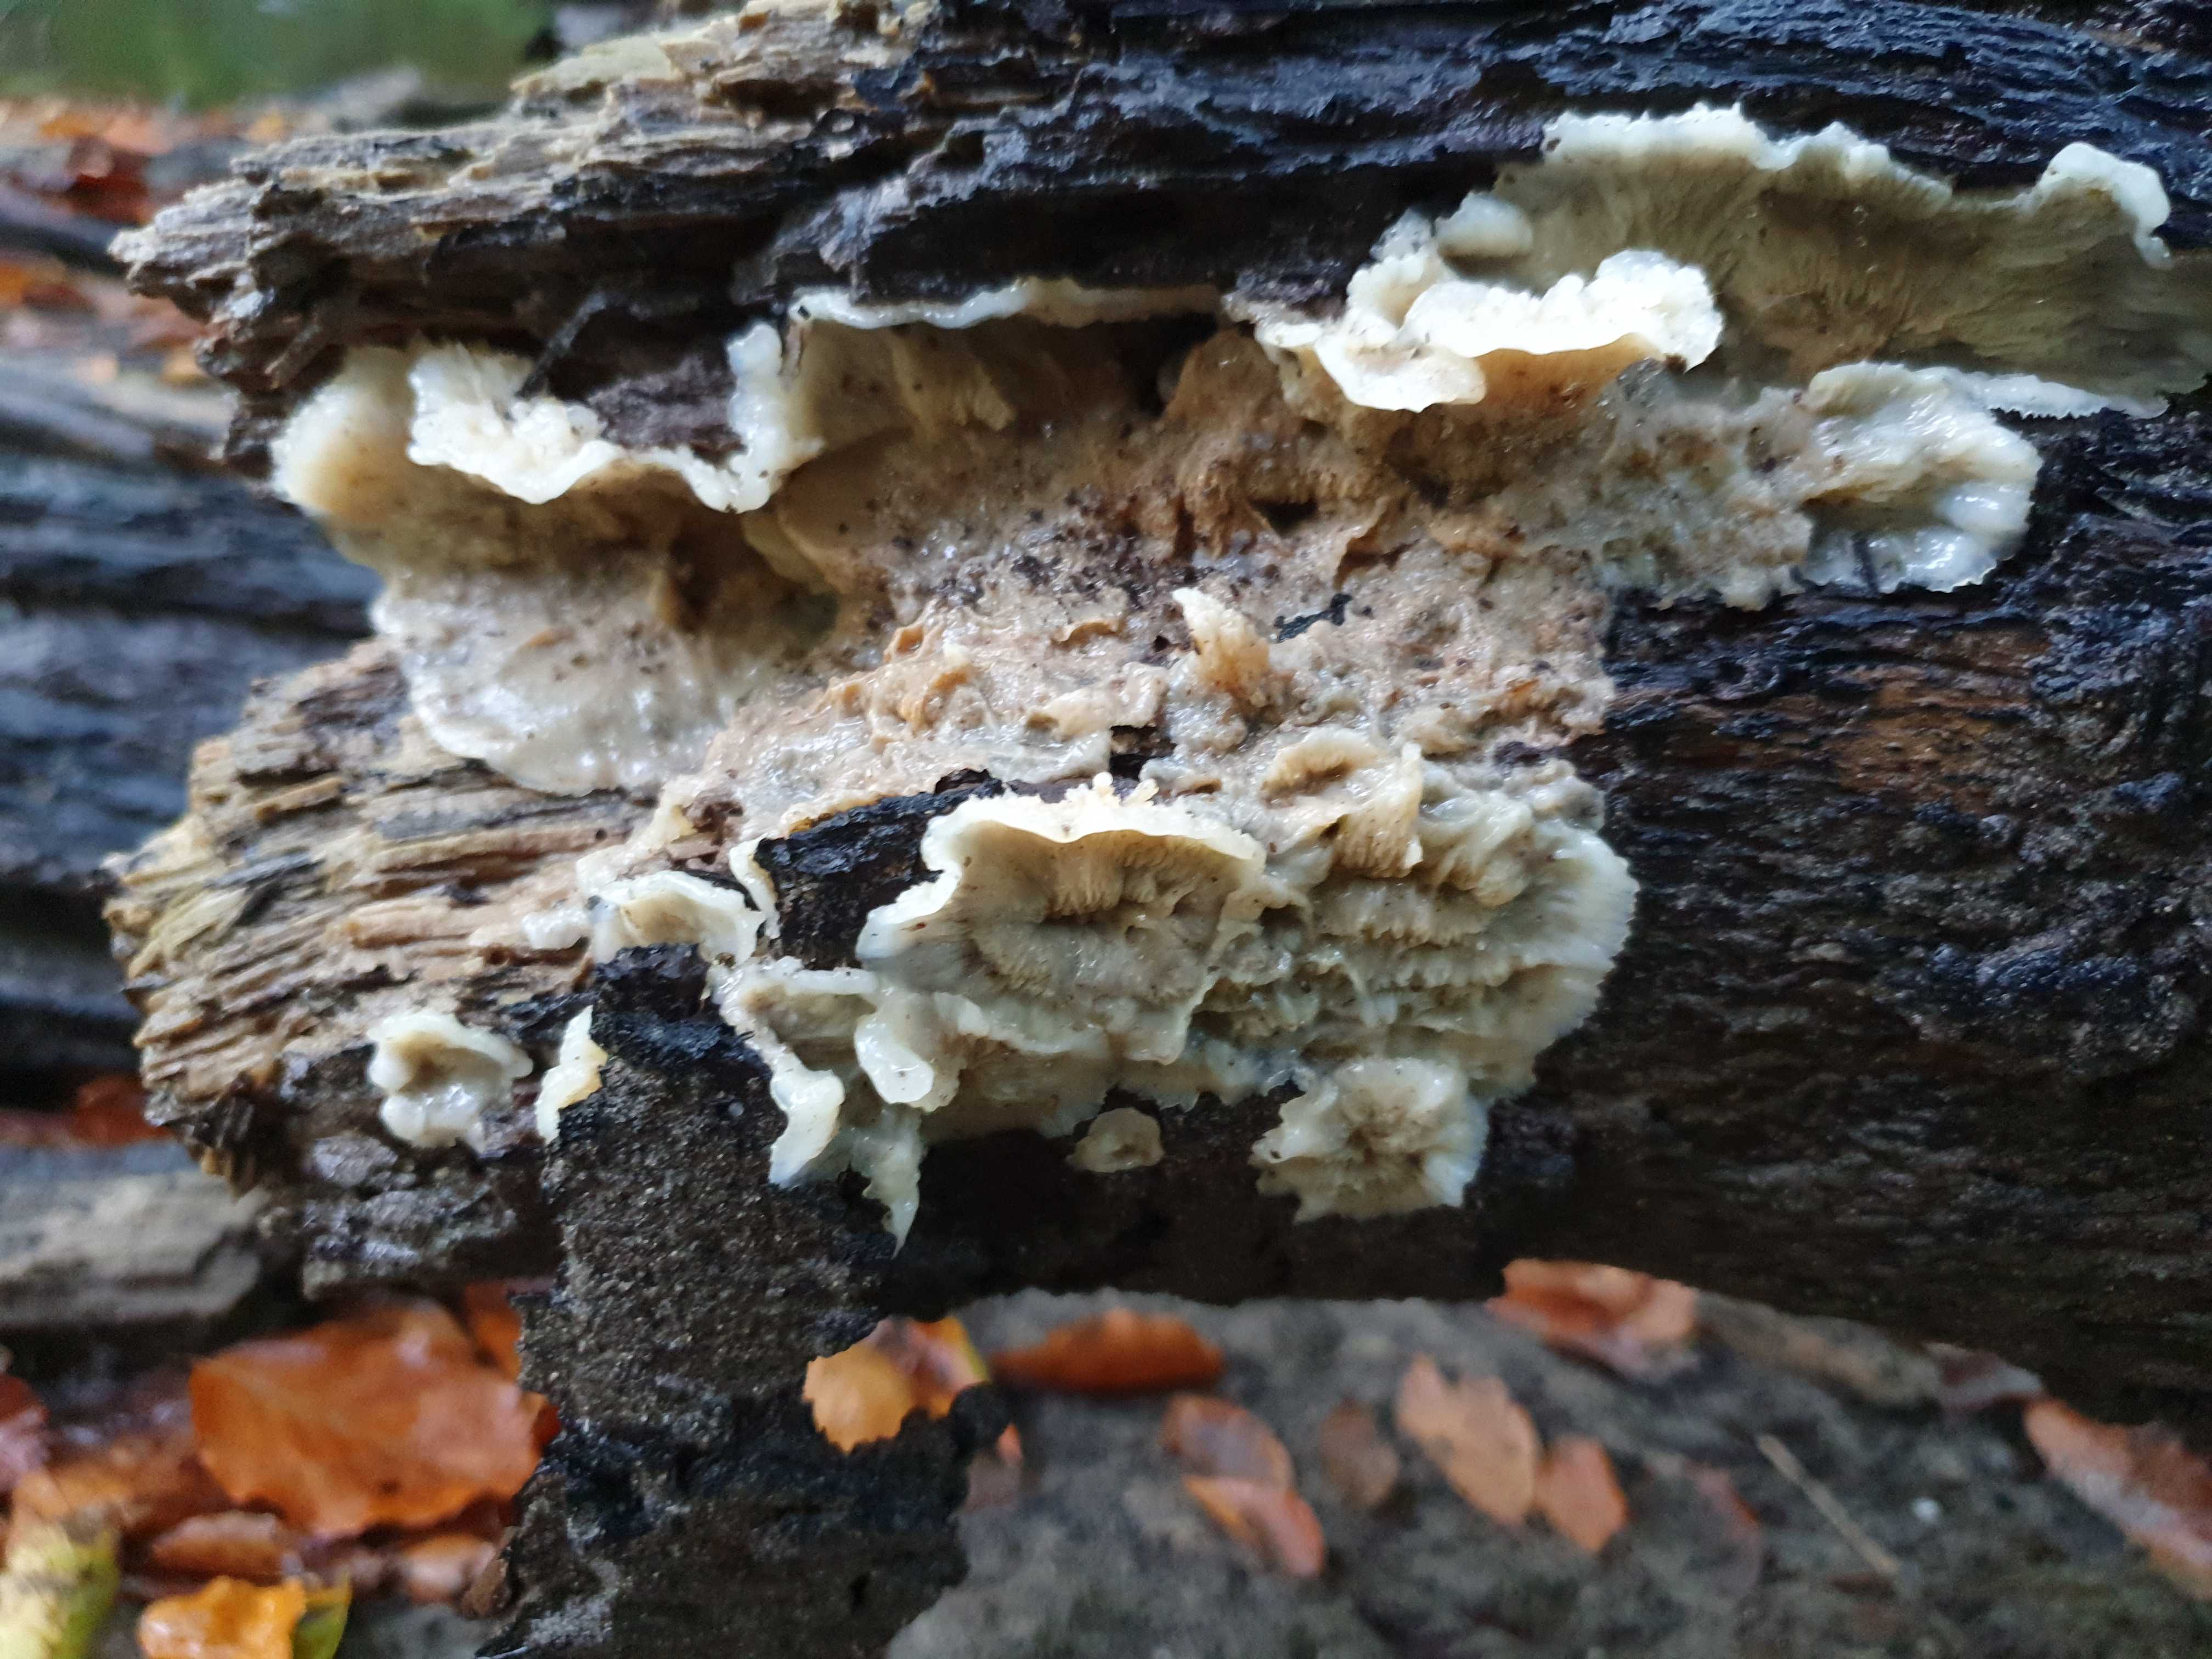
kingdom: Fungi
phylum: Basidiomycota
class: Agaricomycetes
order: Polyporales
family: Meruliaceae
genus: Phlebia
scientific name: Phlebia tremellosa
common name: bævrende åresvamp
